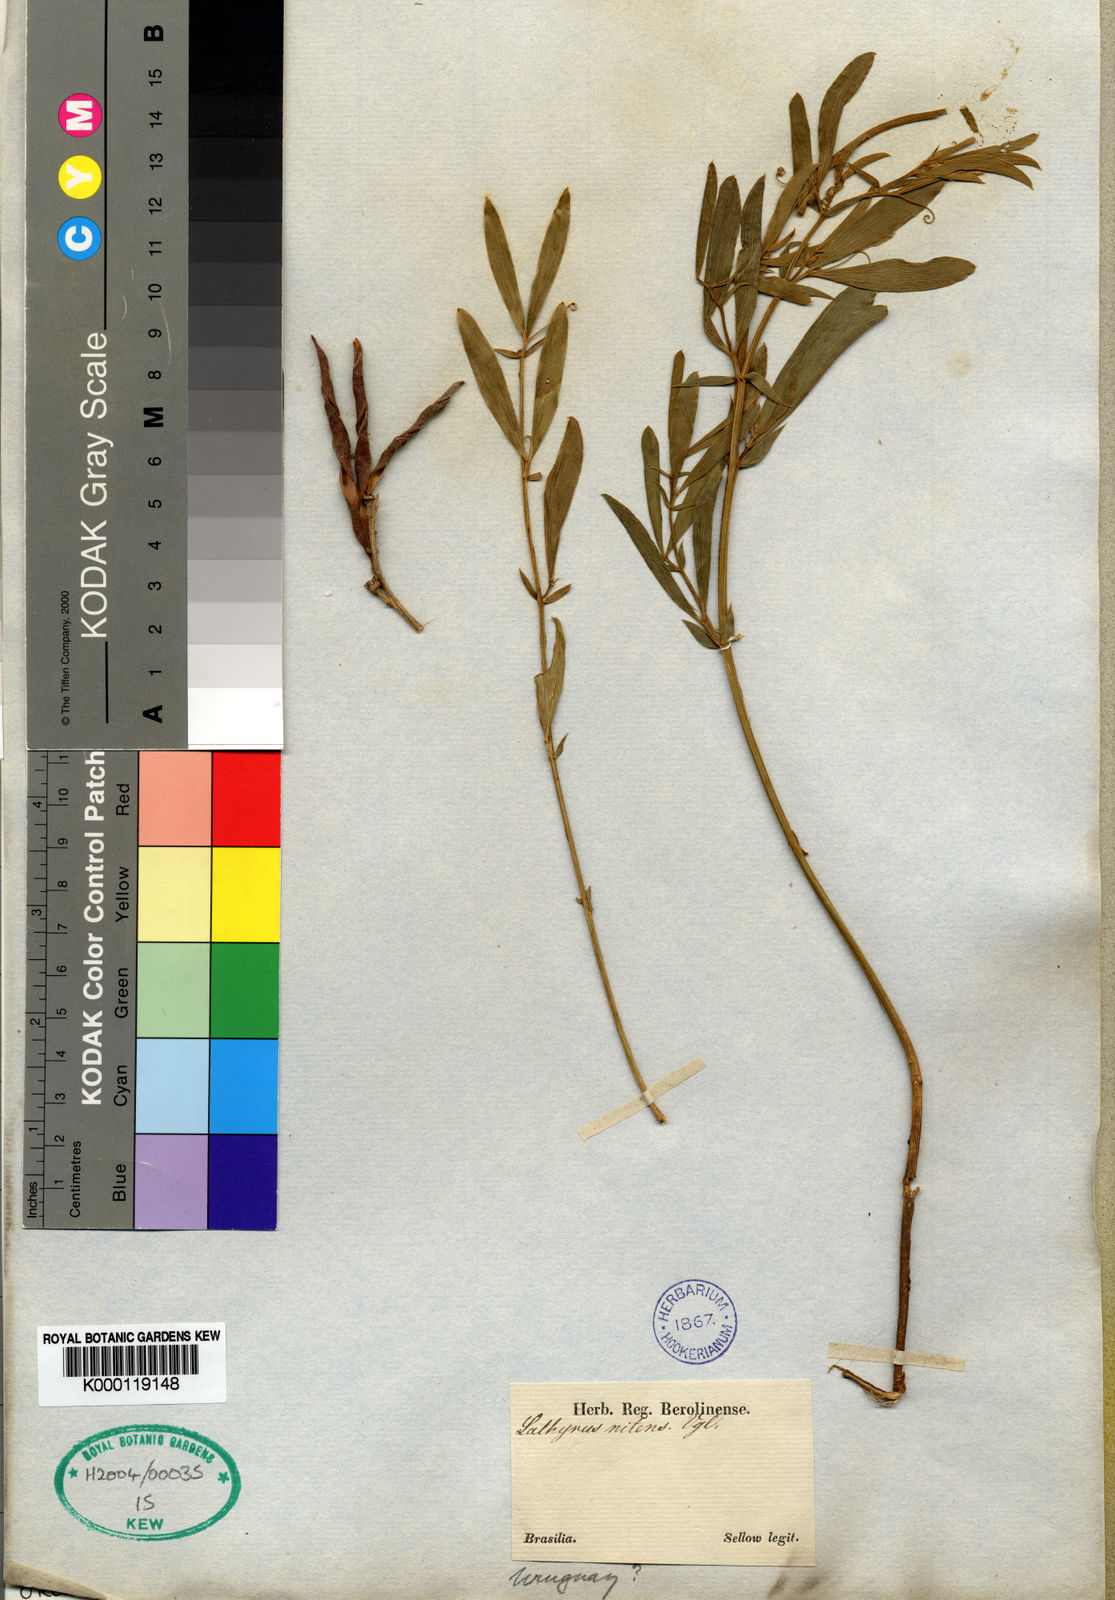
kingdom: Plantae
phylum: Tracheophyta
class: Magnoliopsida
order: Fabales
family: Fabaceae
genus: Lathyrus
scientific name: Lathyrus nitens
